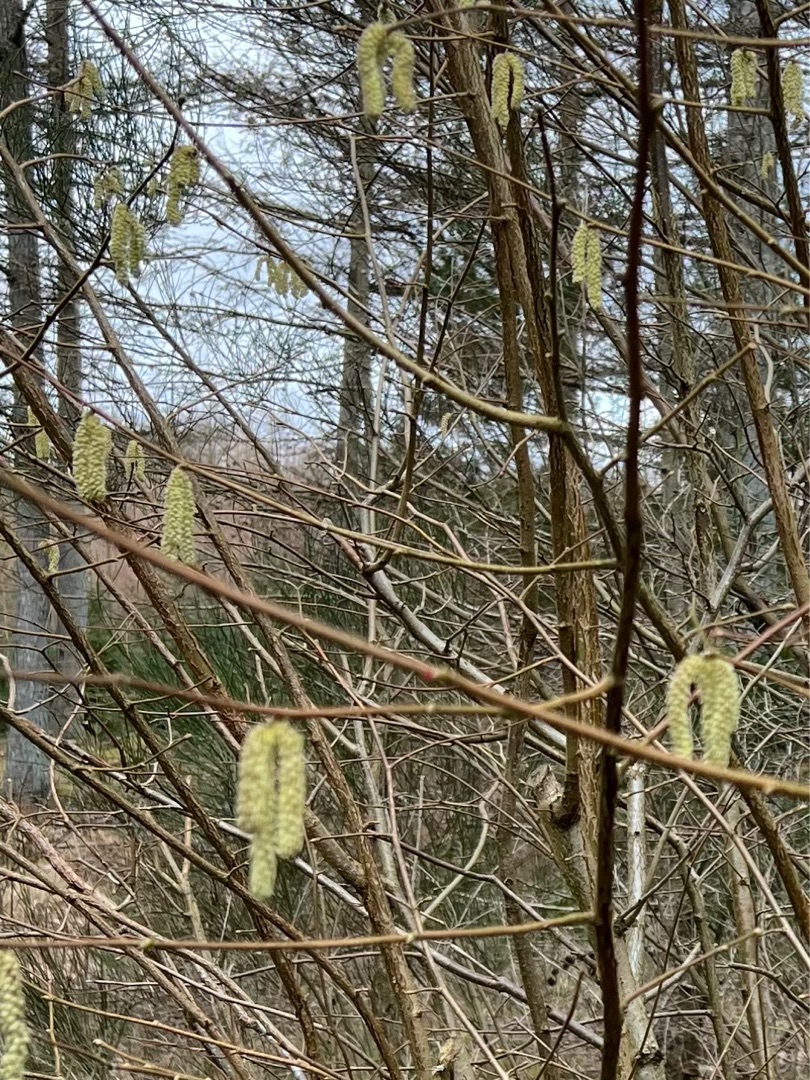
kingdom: Plantae
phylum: Tracheophyta
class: Magnoliopsida
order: Fagales
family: Betulaceae
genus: Corylus
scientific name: Corylus avellana
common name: Hassel
